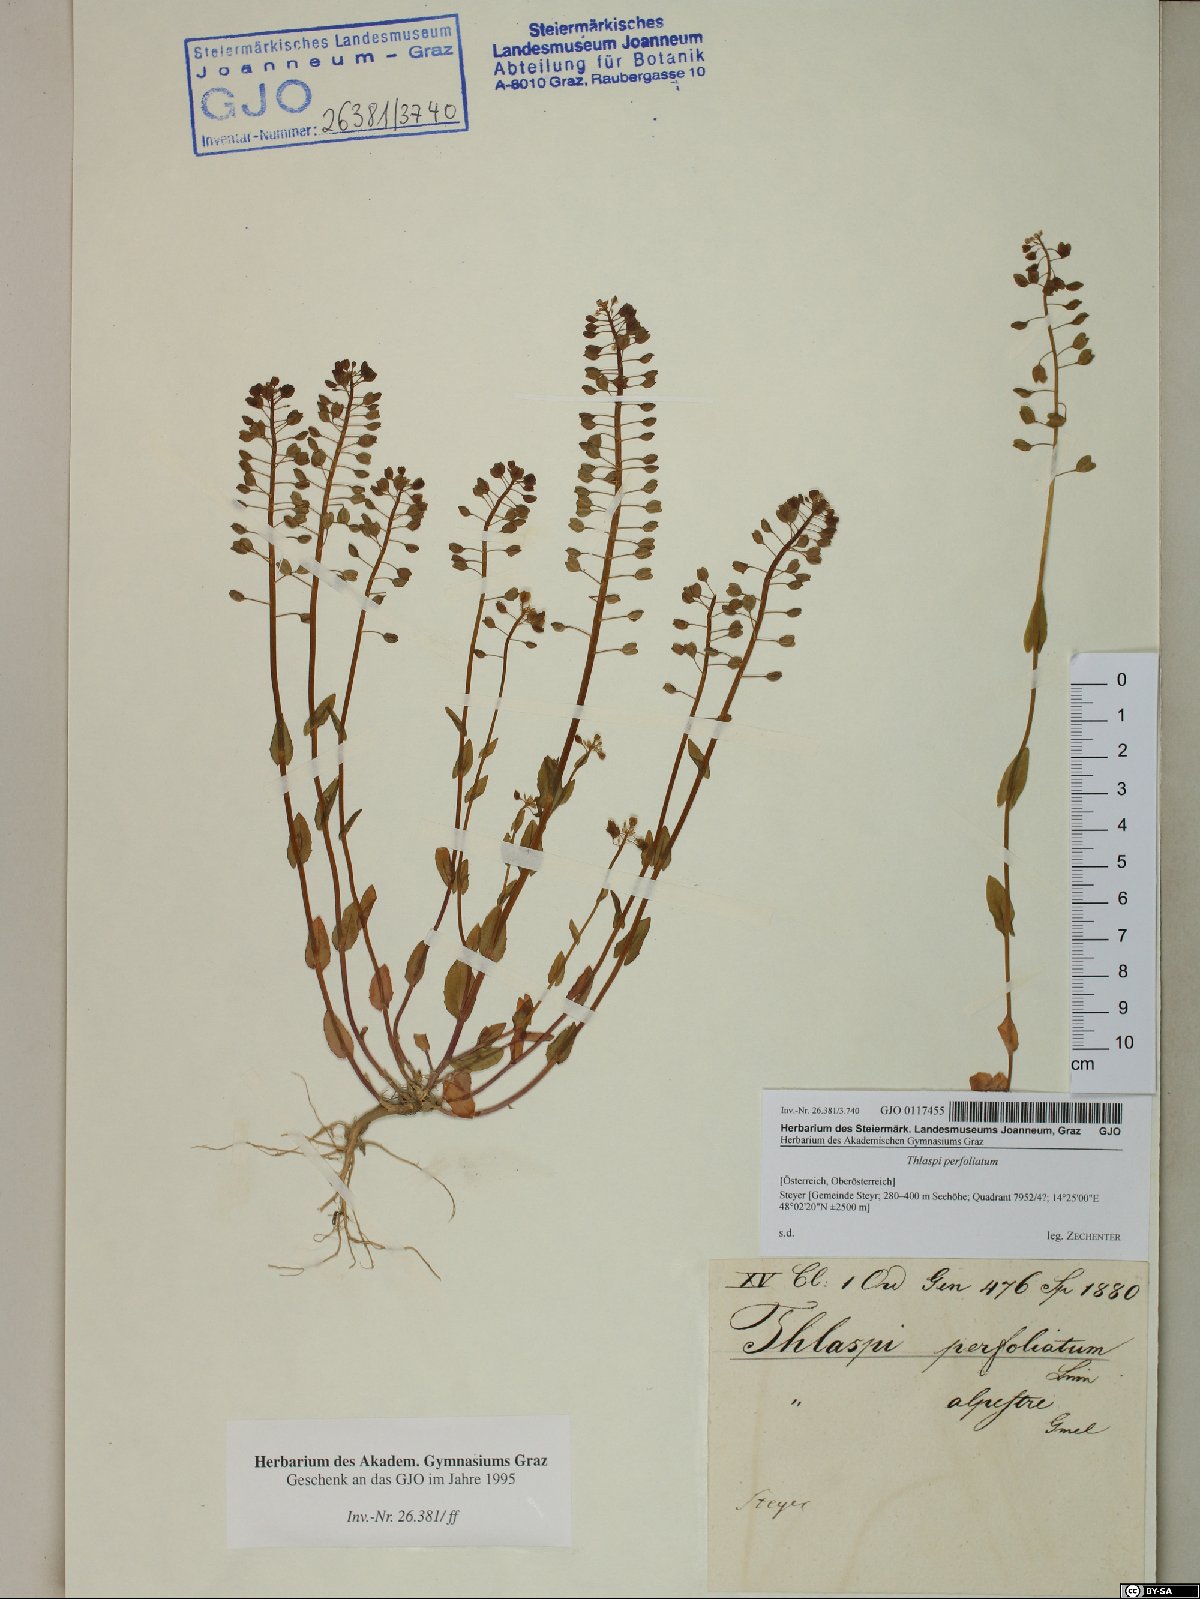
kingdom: Plantae
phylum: Tracheophyta
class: Magnoliopsida
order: Brassicales
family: Brassicaceae
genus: Noccaea
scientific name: Noccaea perfoliata
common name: Perfoliate pennycress
